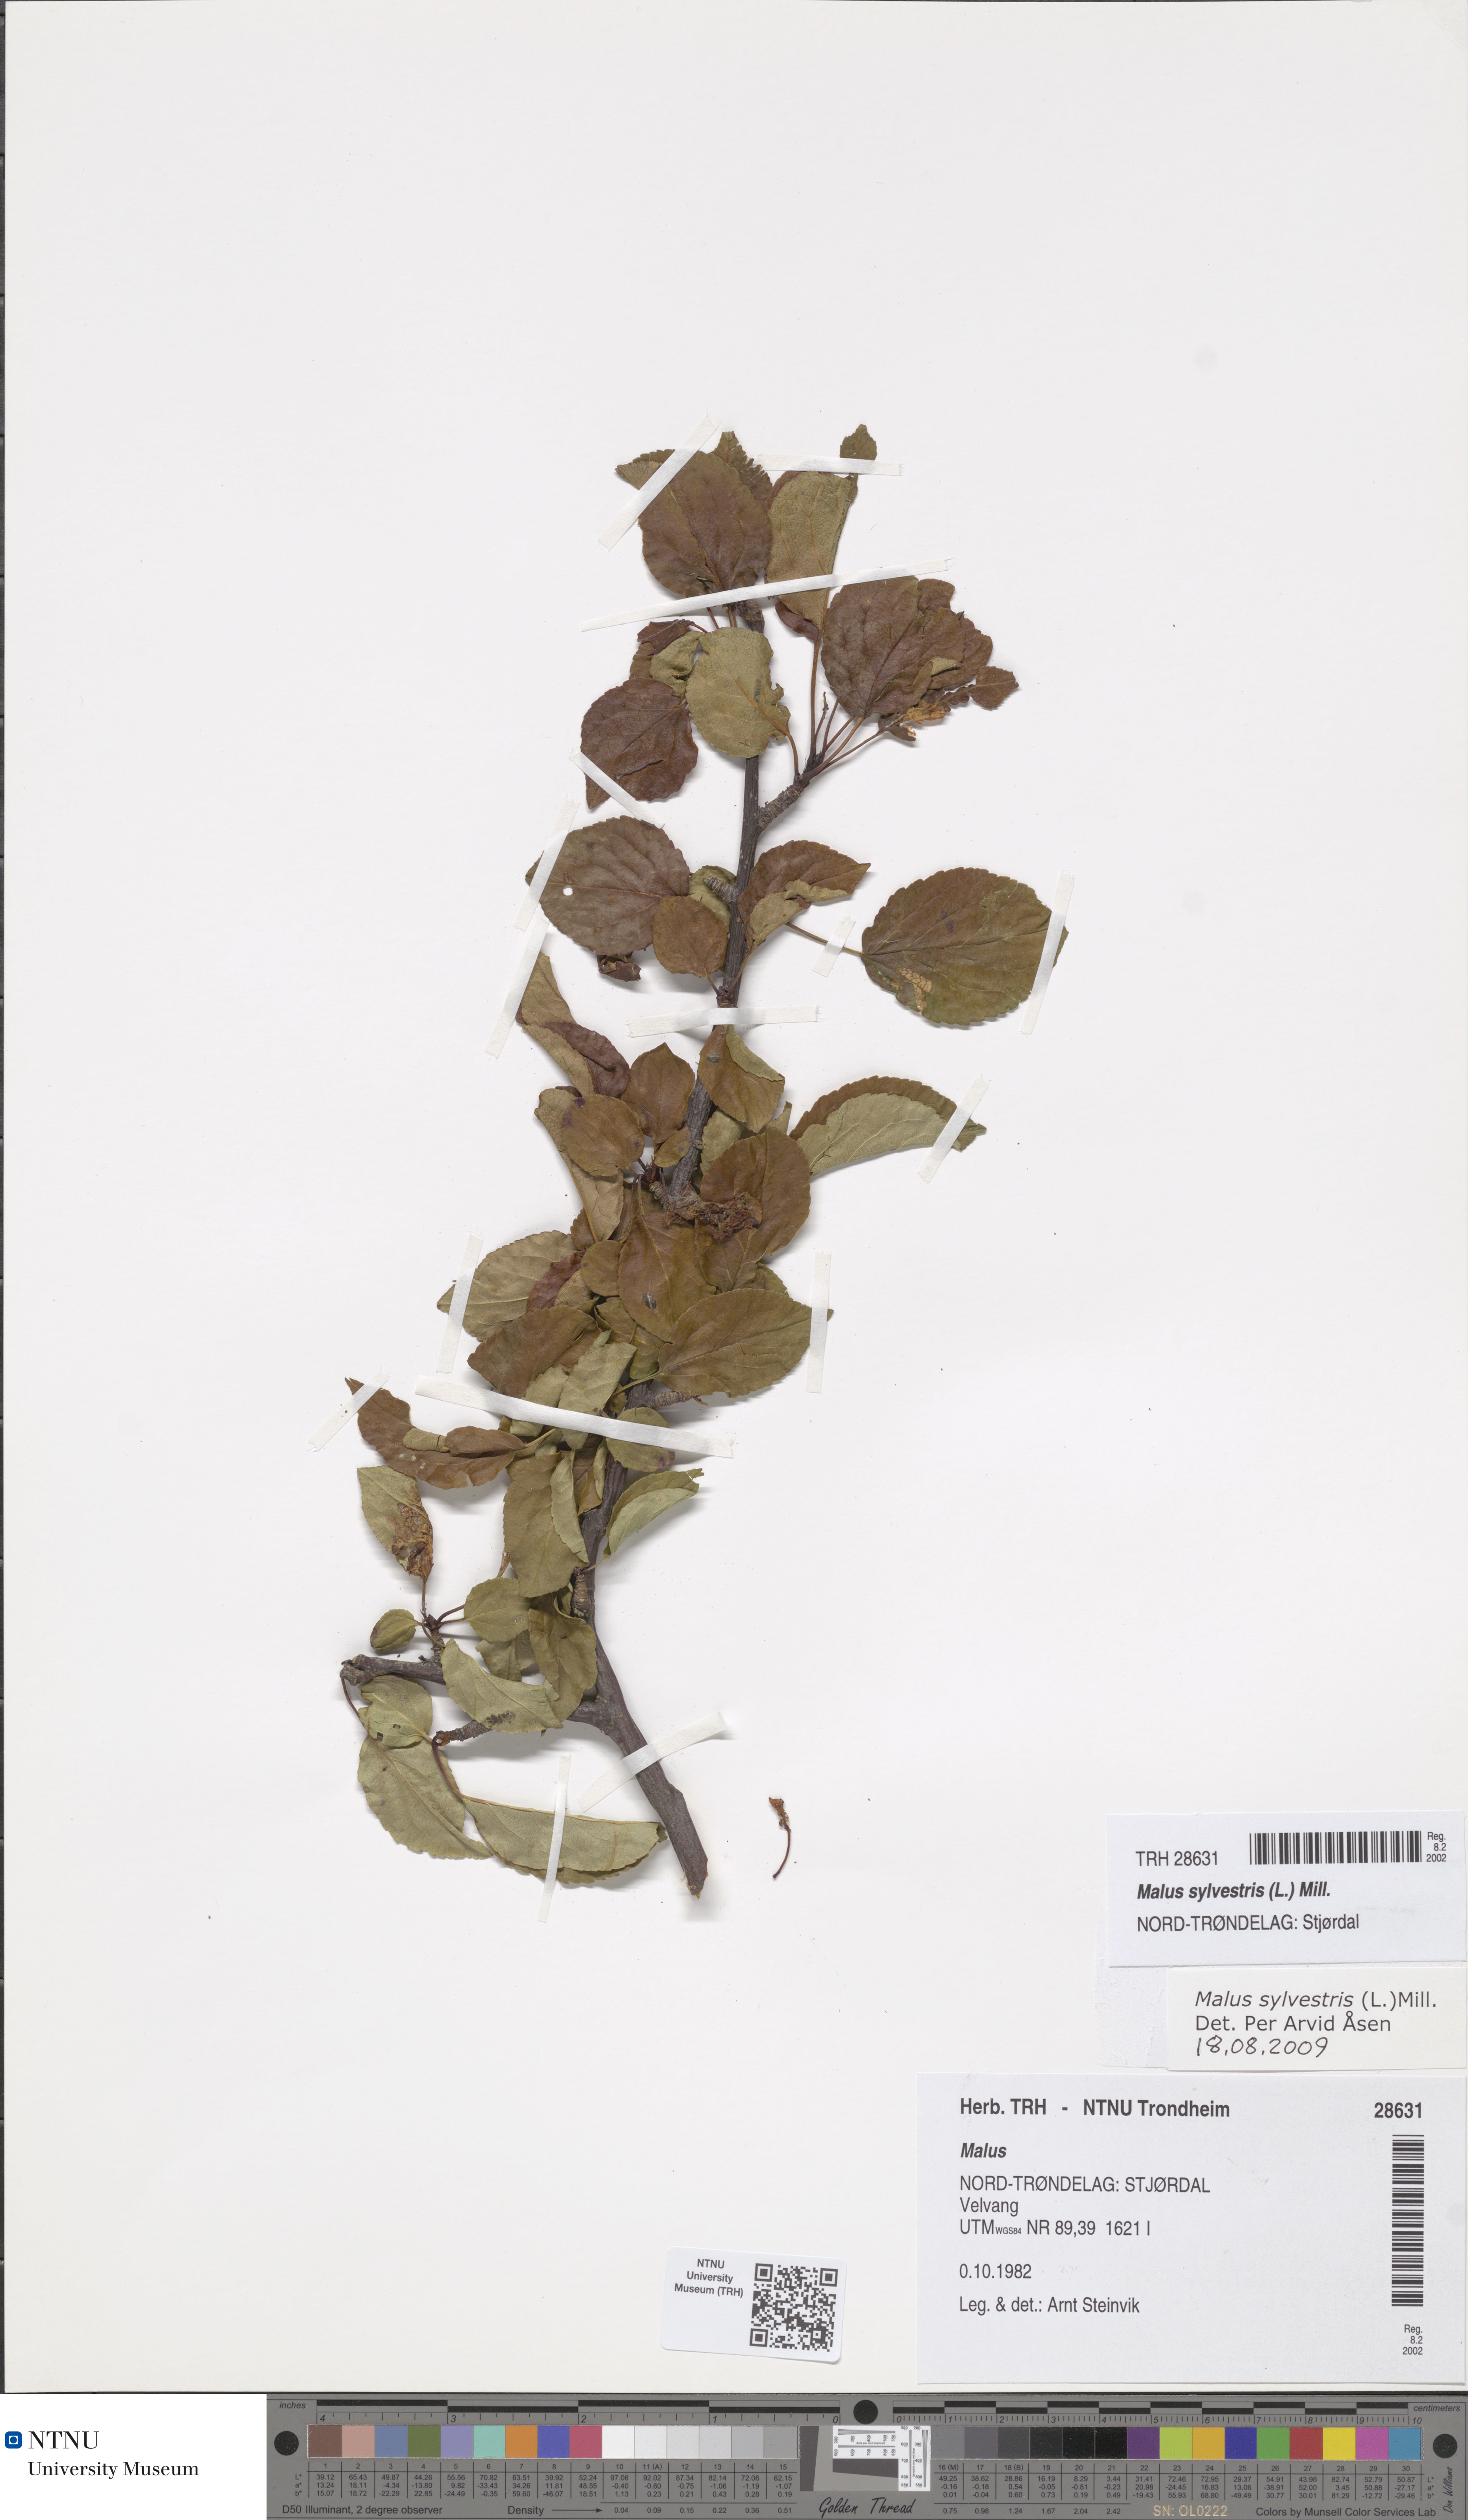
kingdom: Plantae
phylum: Tracheophyta
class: Magnoliopsida
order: Rosales
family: Rosaceae
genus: Malus
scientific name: Malus sylvestris
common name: Crab apple
